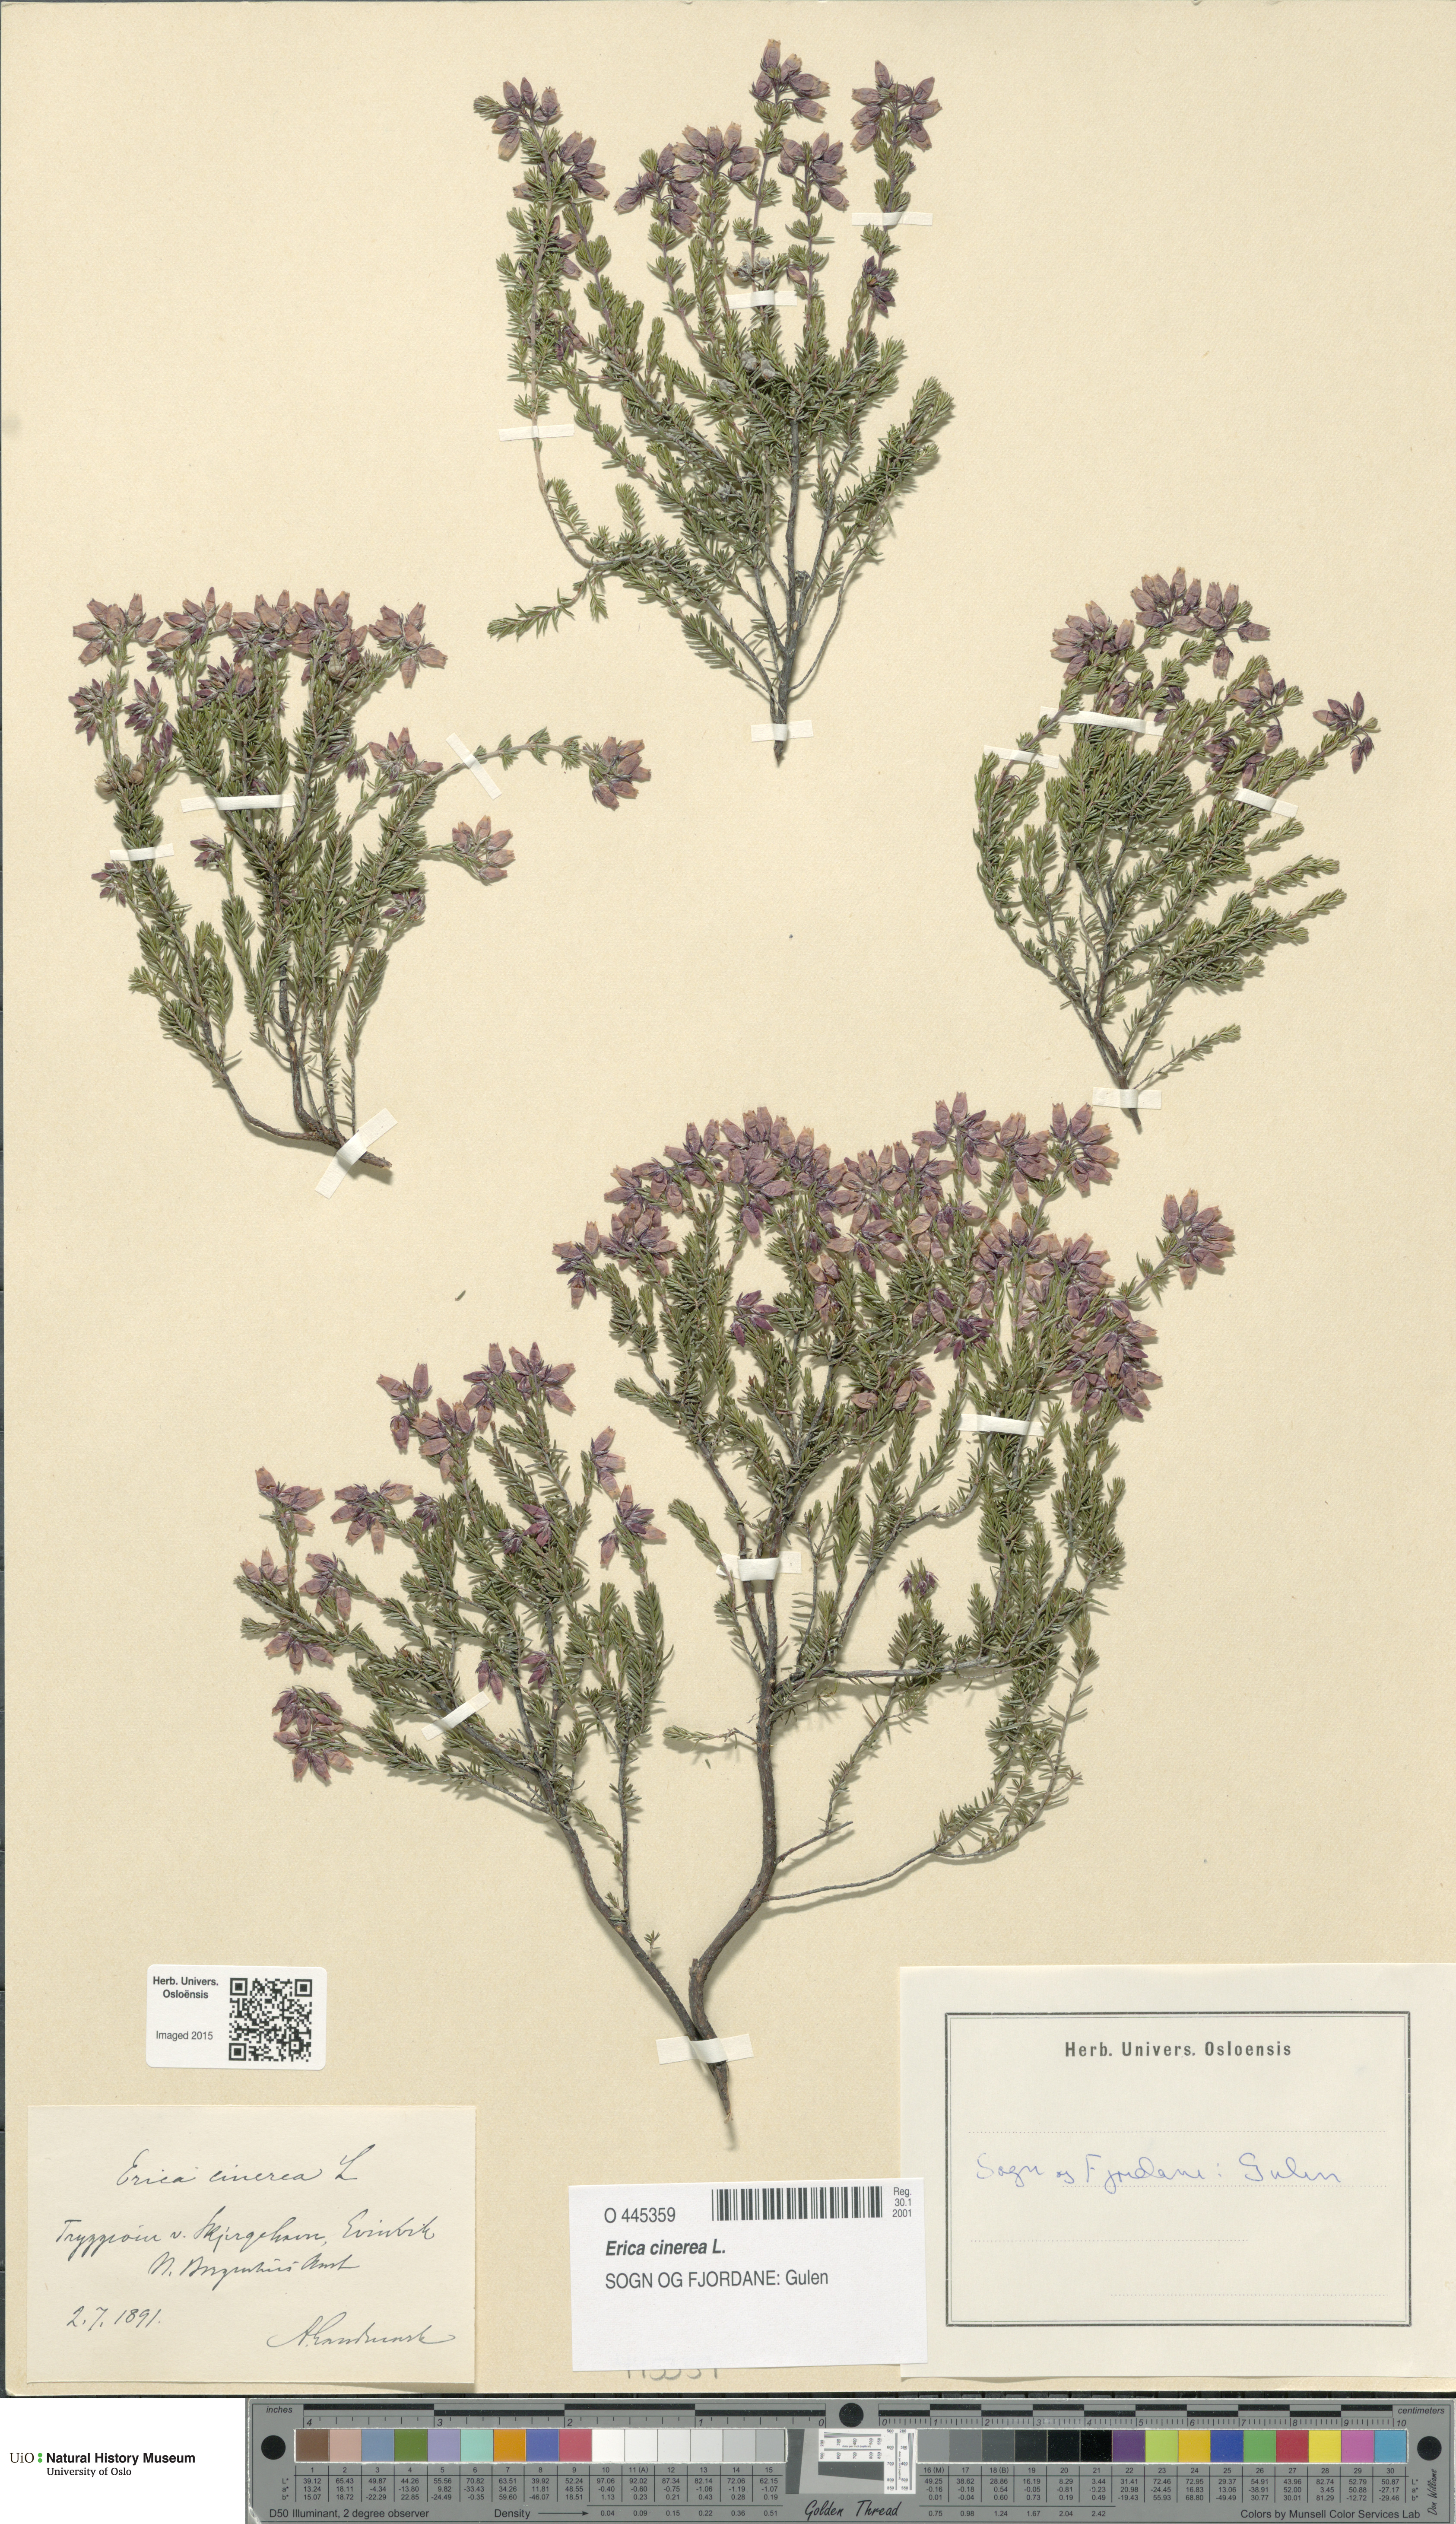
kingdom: Plantae
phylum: Tracheophyta
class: Magnoliopsida
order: Ericales
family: Ericaceae
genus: Erica
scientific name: Erica cinerea
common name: Bell heather
